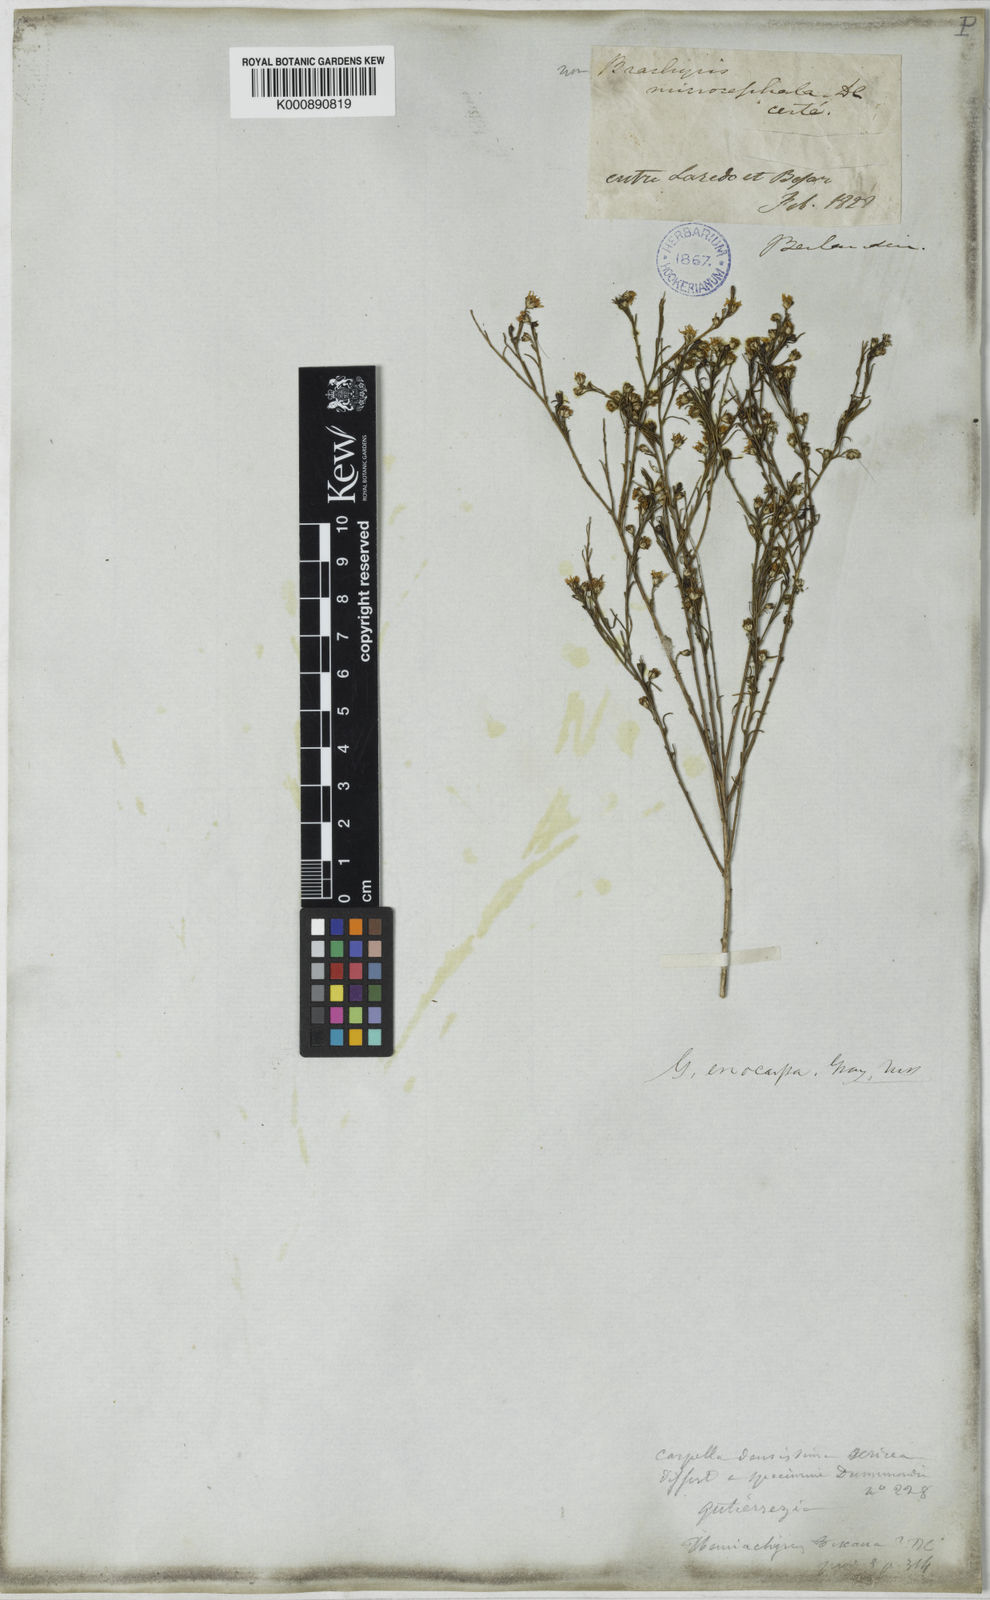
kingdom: Plantae
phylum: Tracheophyta
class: Magnoliopsida
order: Asterales
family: Asteraceae
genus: Gutierrezia
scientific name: Gutierrezia sphaerocephala
